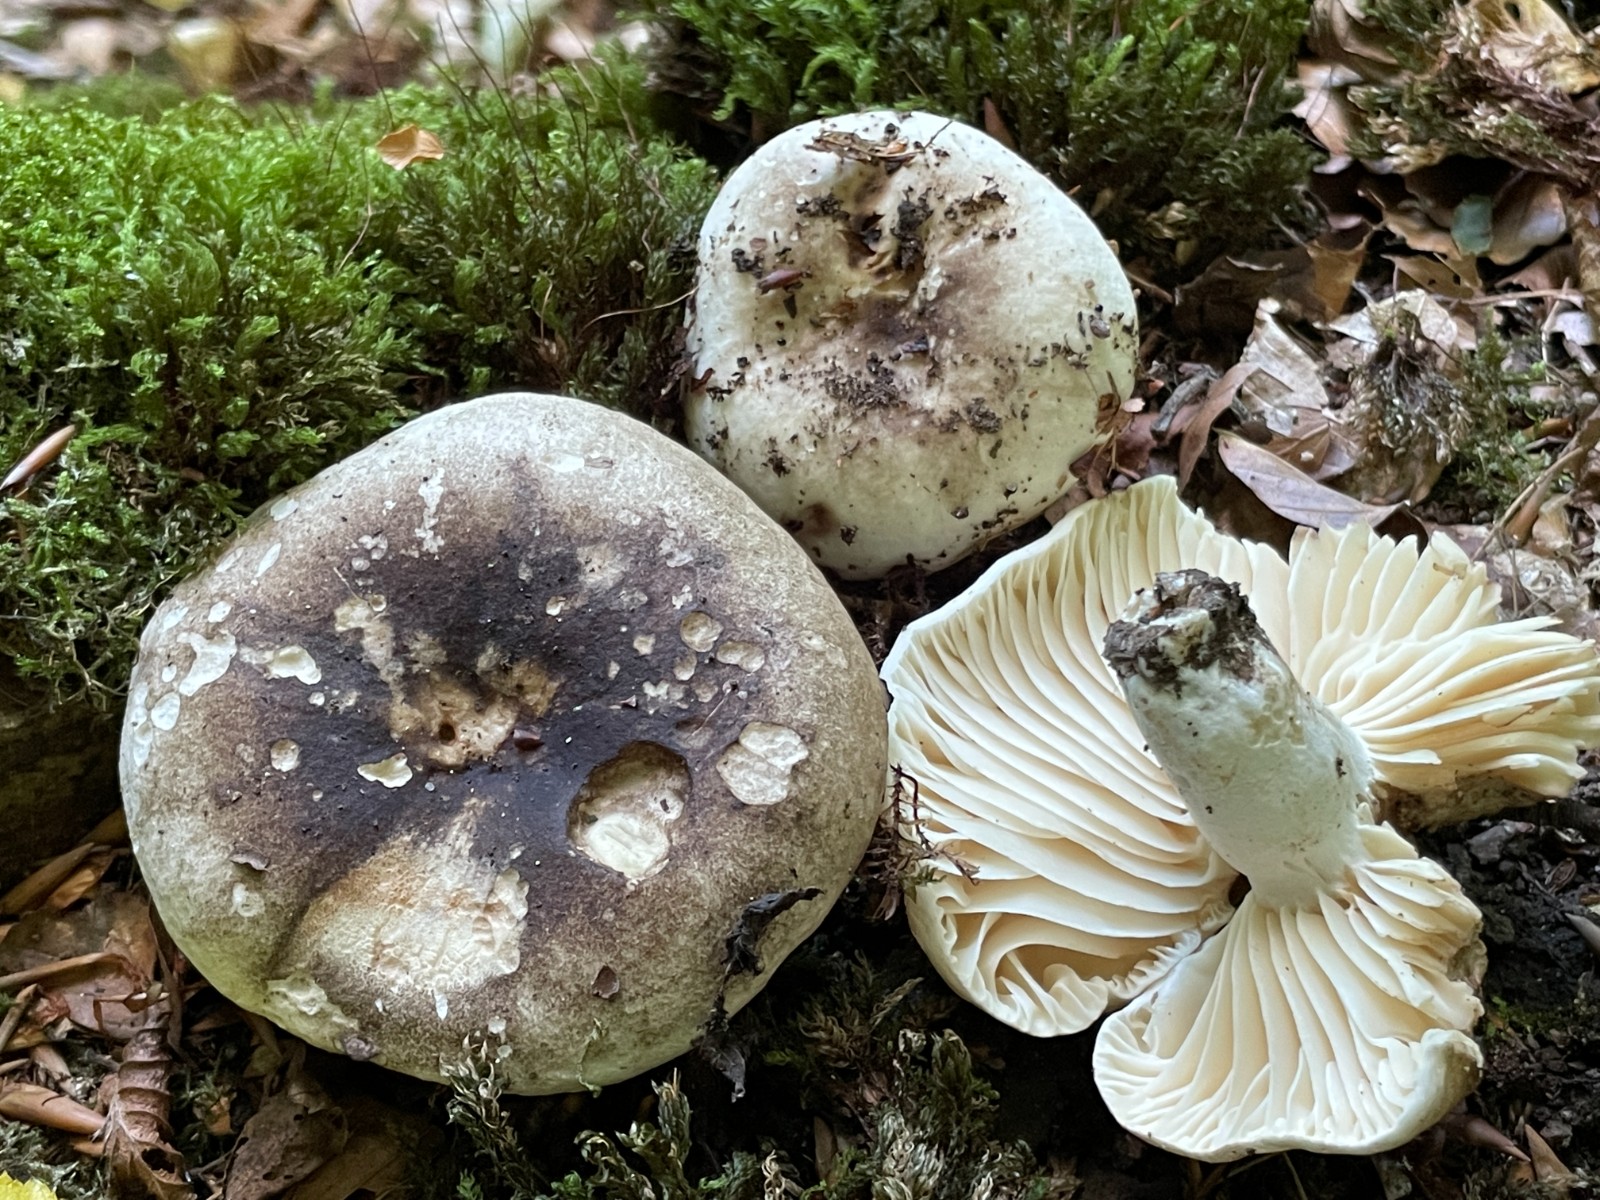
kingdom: Fungi
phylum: Basidiomycota
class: Agaricomycetes
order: Russulales
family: Russulaceae
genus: Russula
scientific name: Russula adusta
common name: sværtende skørhat
